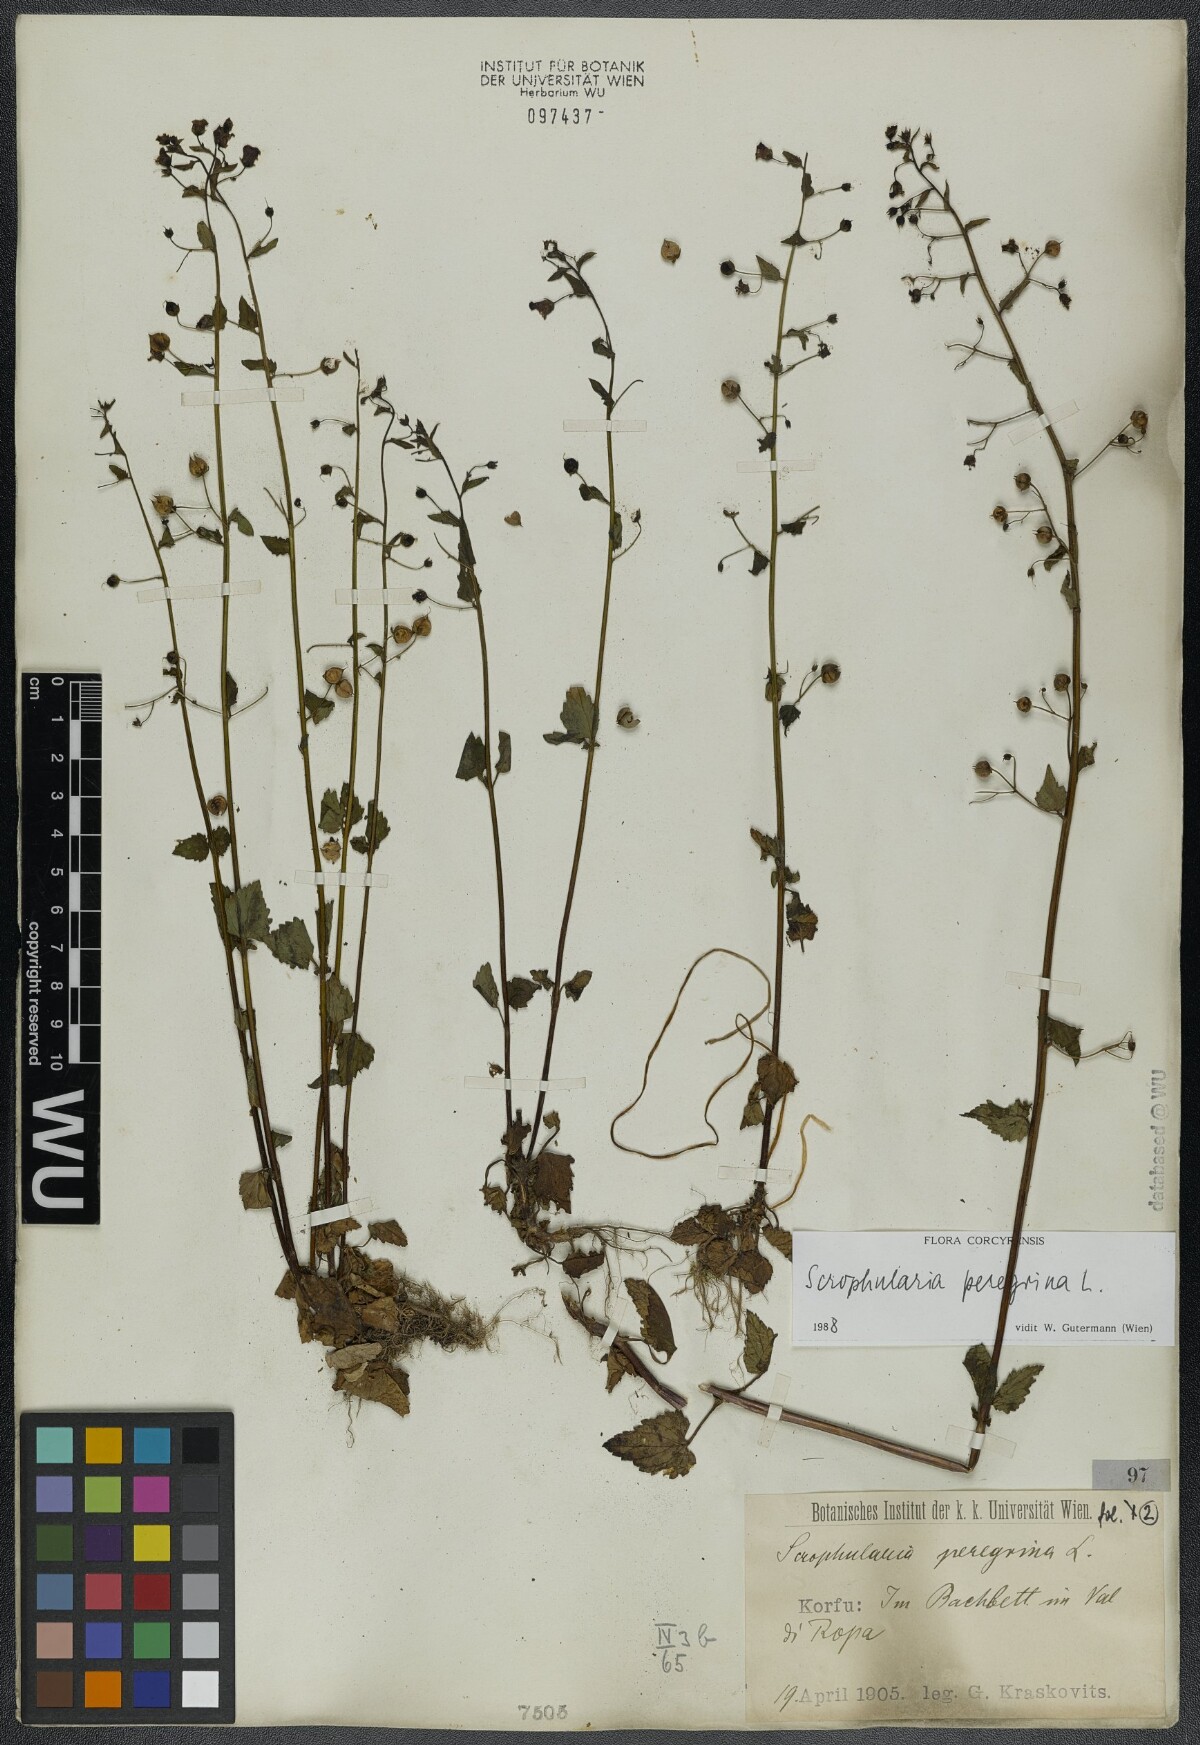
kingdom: Plantae
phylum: Tracheophyta
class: Magnoliopsida
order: Lamiales
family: Scrophulariaceae
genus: Scrophularia
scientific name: Scrophularia peregrina
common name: Mediterranean figwort
